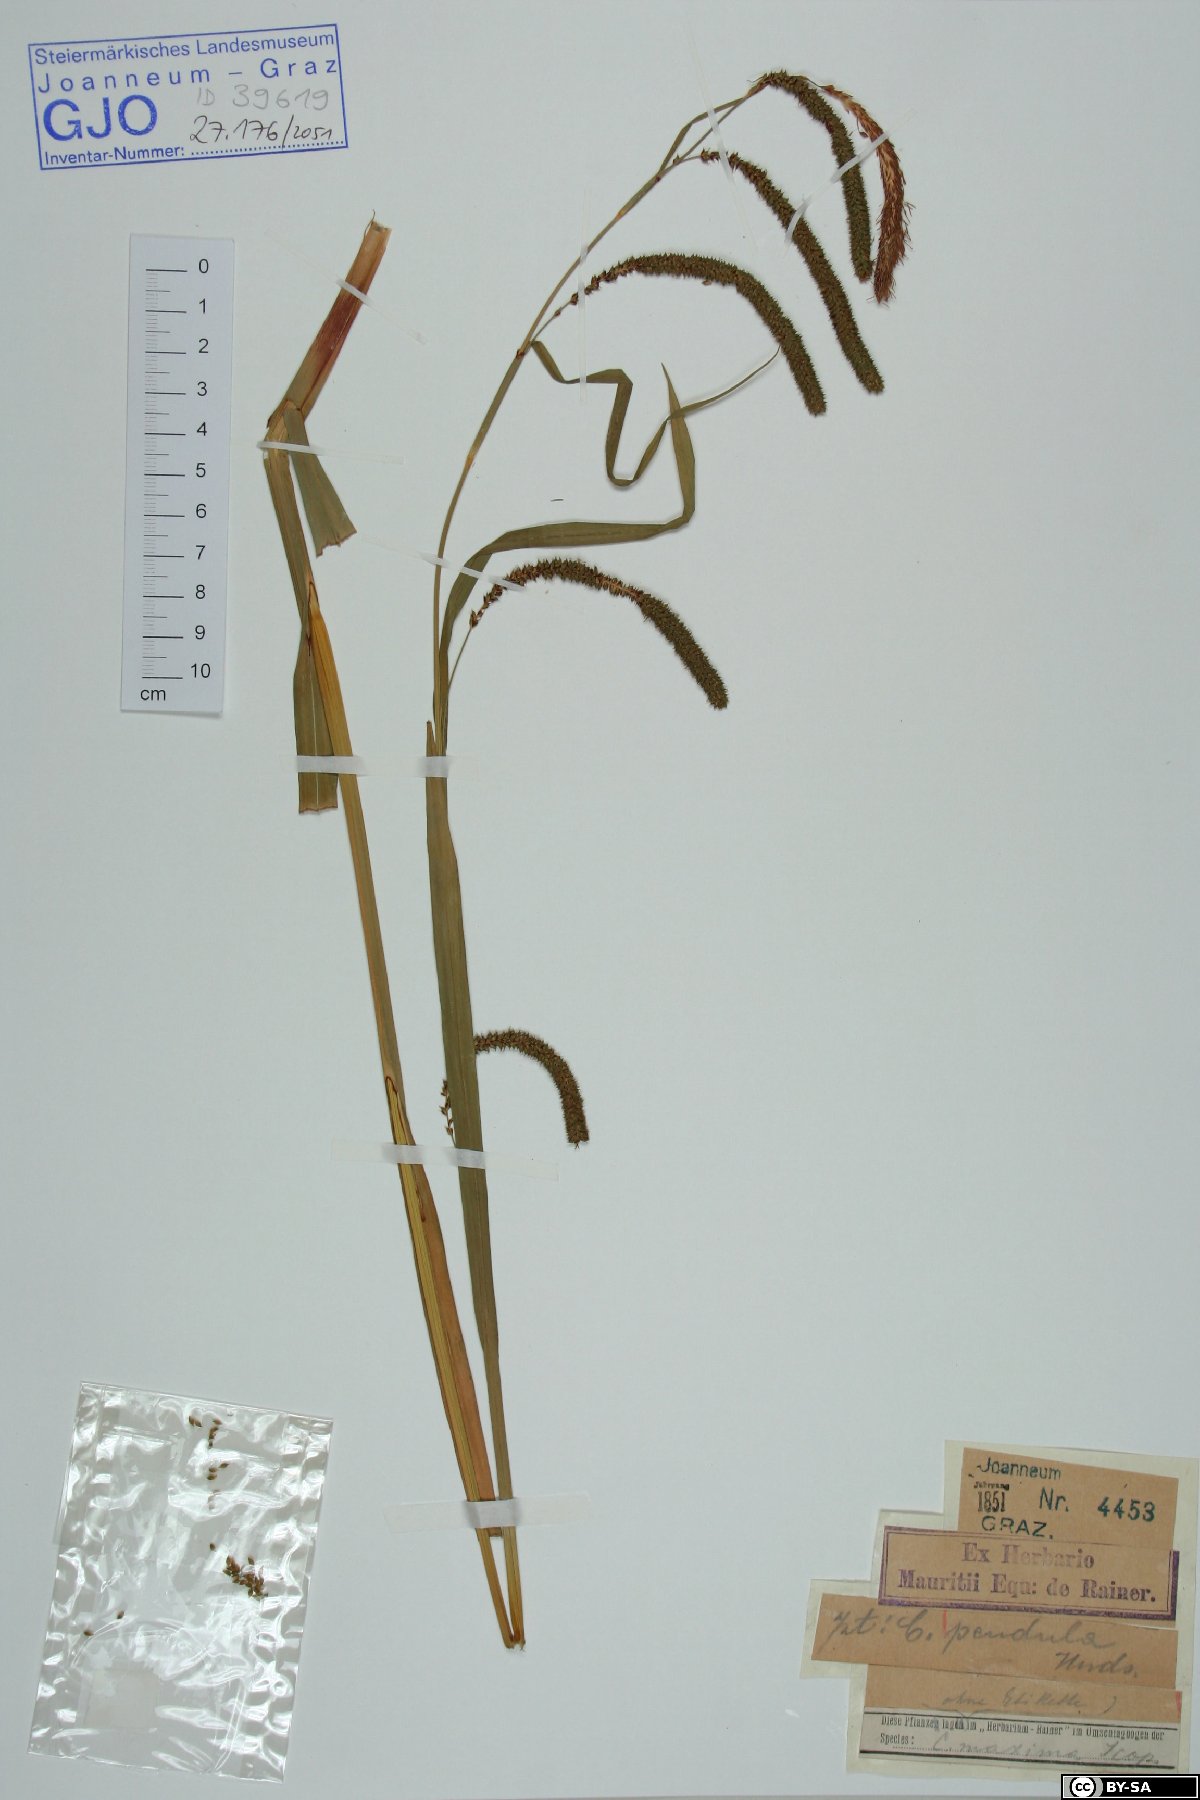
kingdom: Plantae
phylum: Tracheophyta
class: Liliopsida
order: Poales
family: Cyperaceae
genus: Carex
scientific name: Carex pendula
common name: Pendulous sedge
